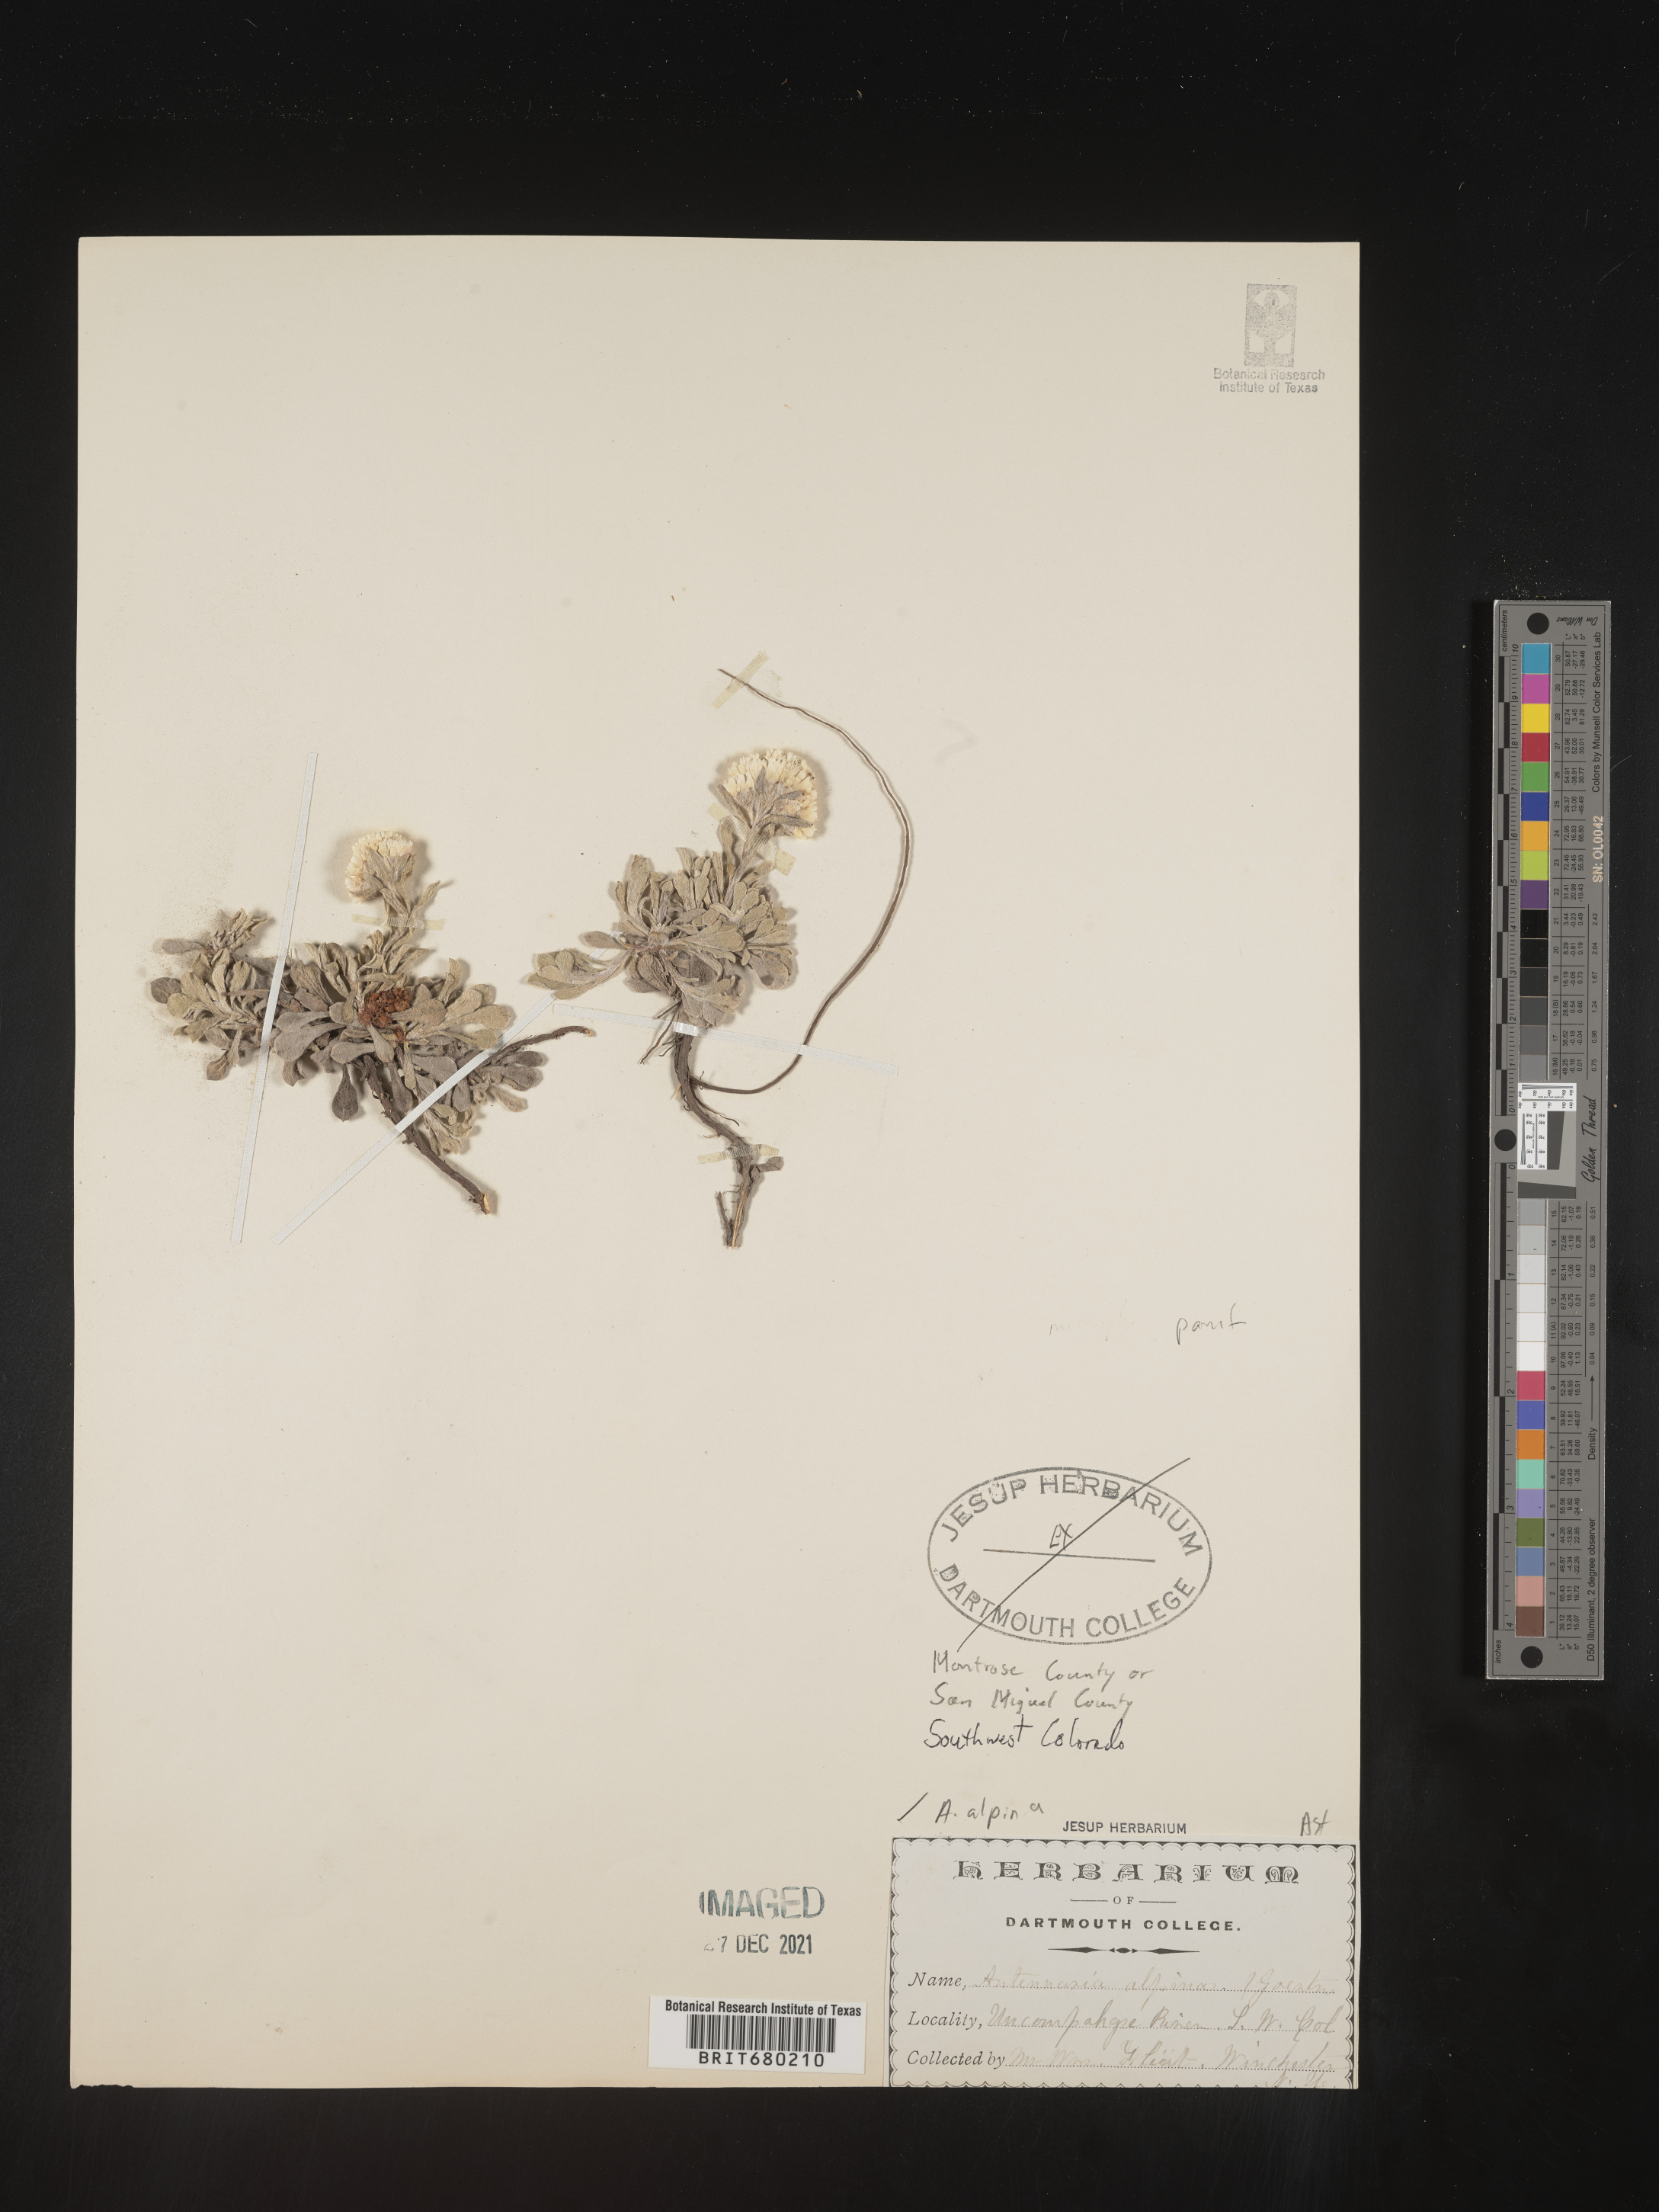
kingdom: Plantae
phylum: Tracheophyta
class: Magnoliopsida
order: Asterales
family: Asteraceae
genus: Antennaria
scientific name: Antennaria plantaginifolia
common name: Plantain-leaved pussytoes
